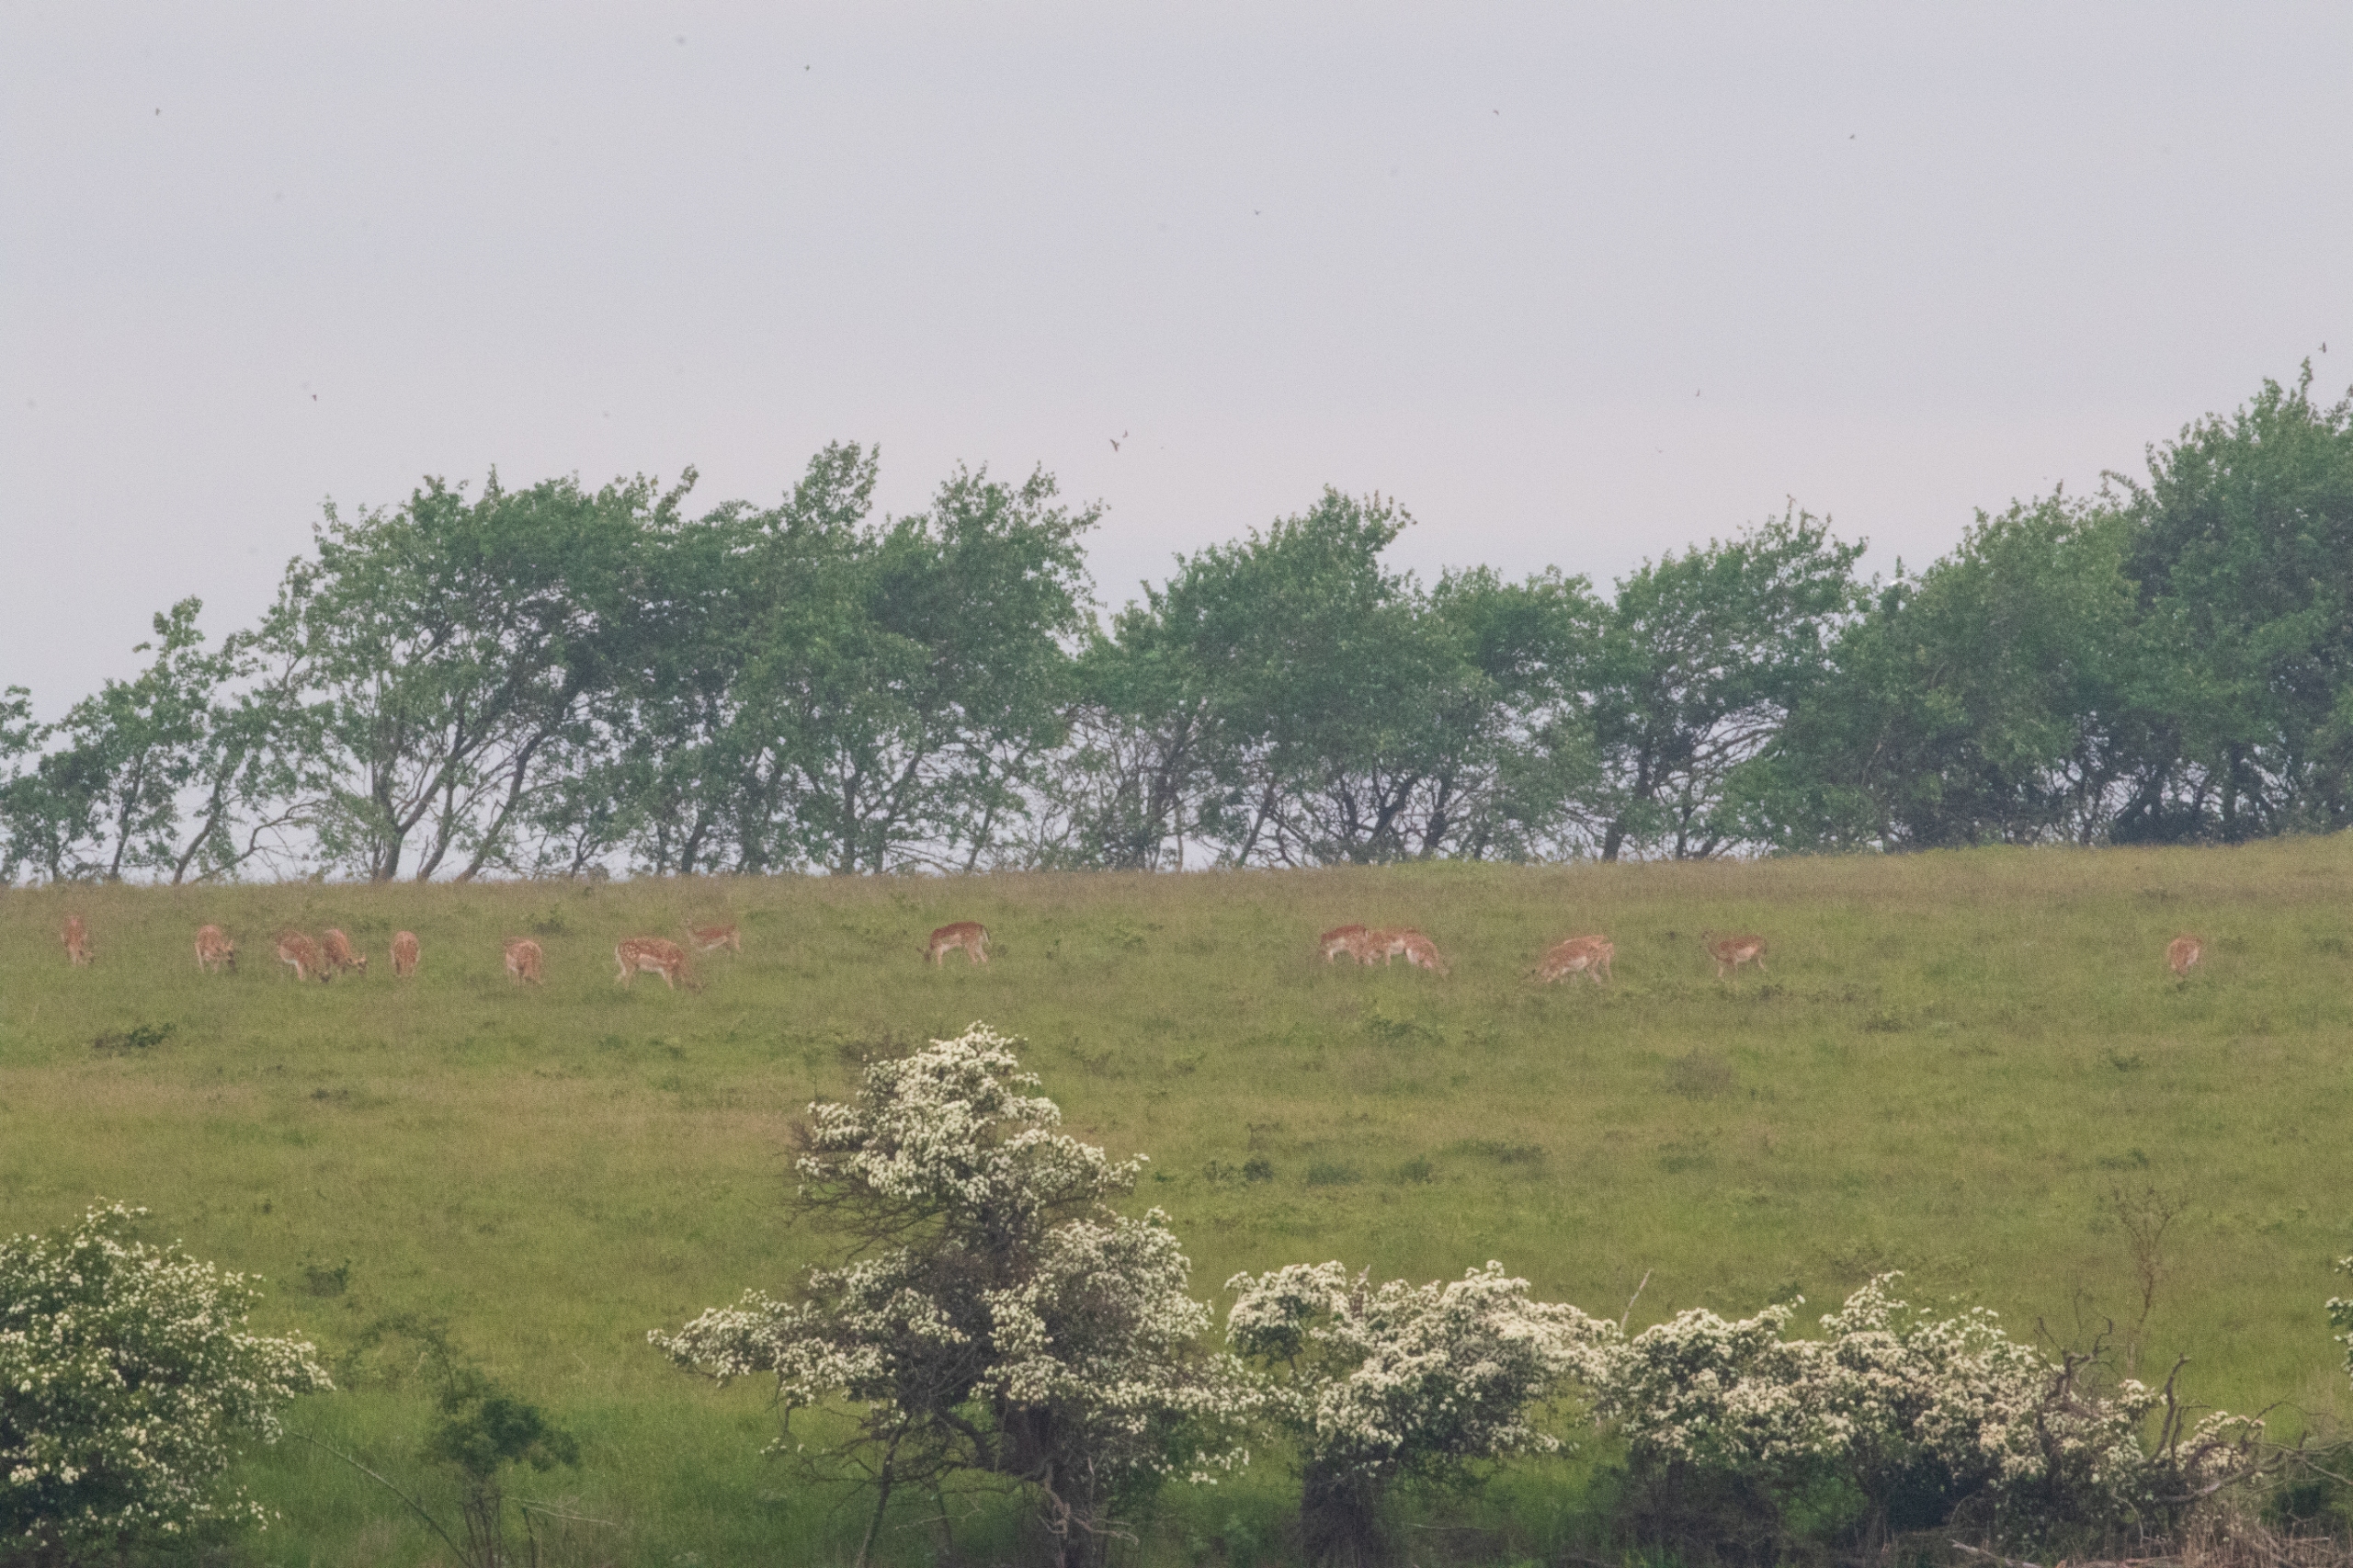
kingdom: Animalia
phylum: Chordata
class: Mammalia
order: Artiodactyla
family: Cervidae
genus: Dama
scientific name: Dama dama
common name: Dådyr
